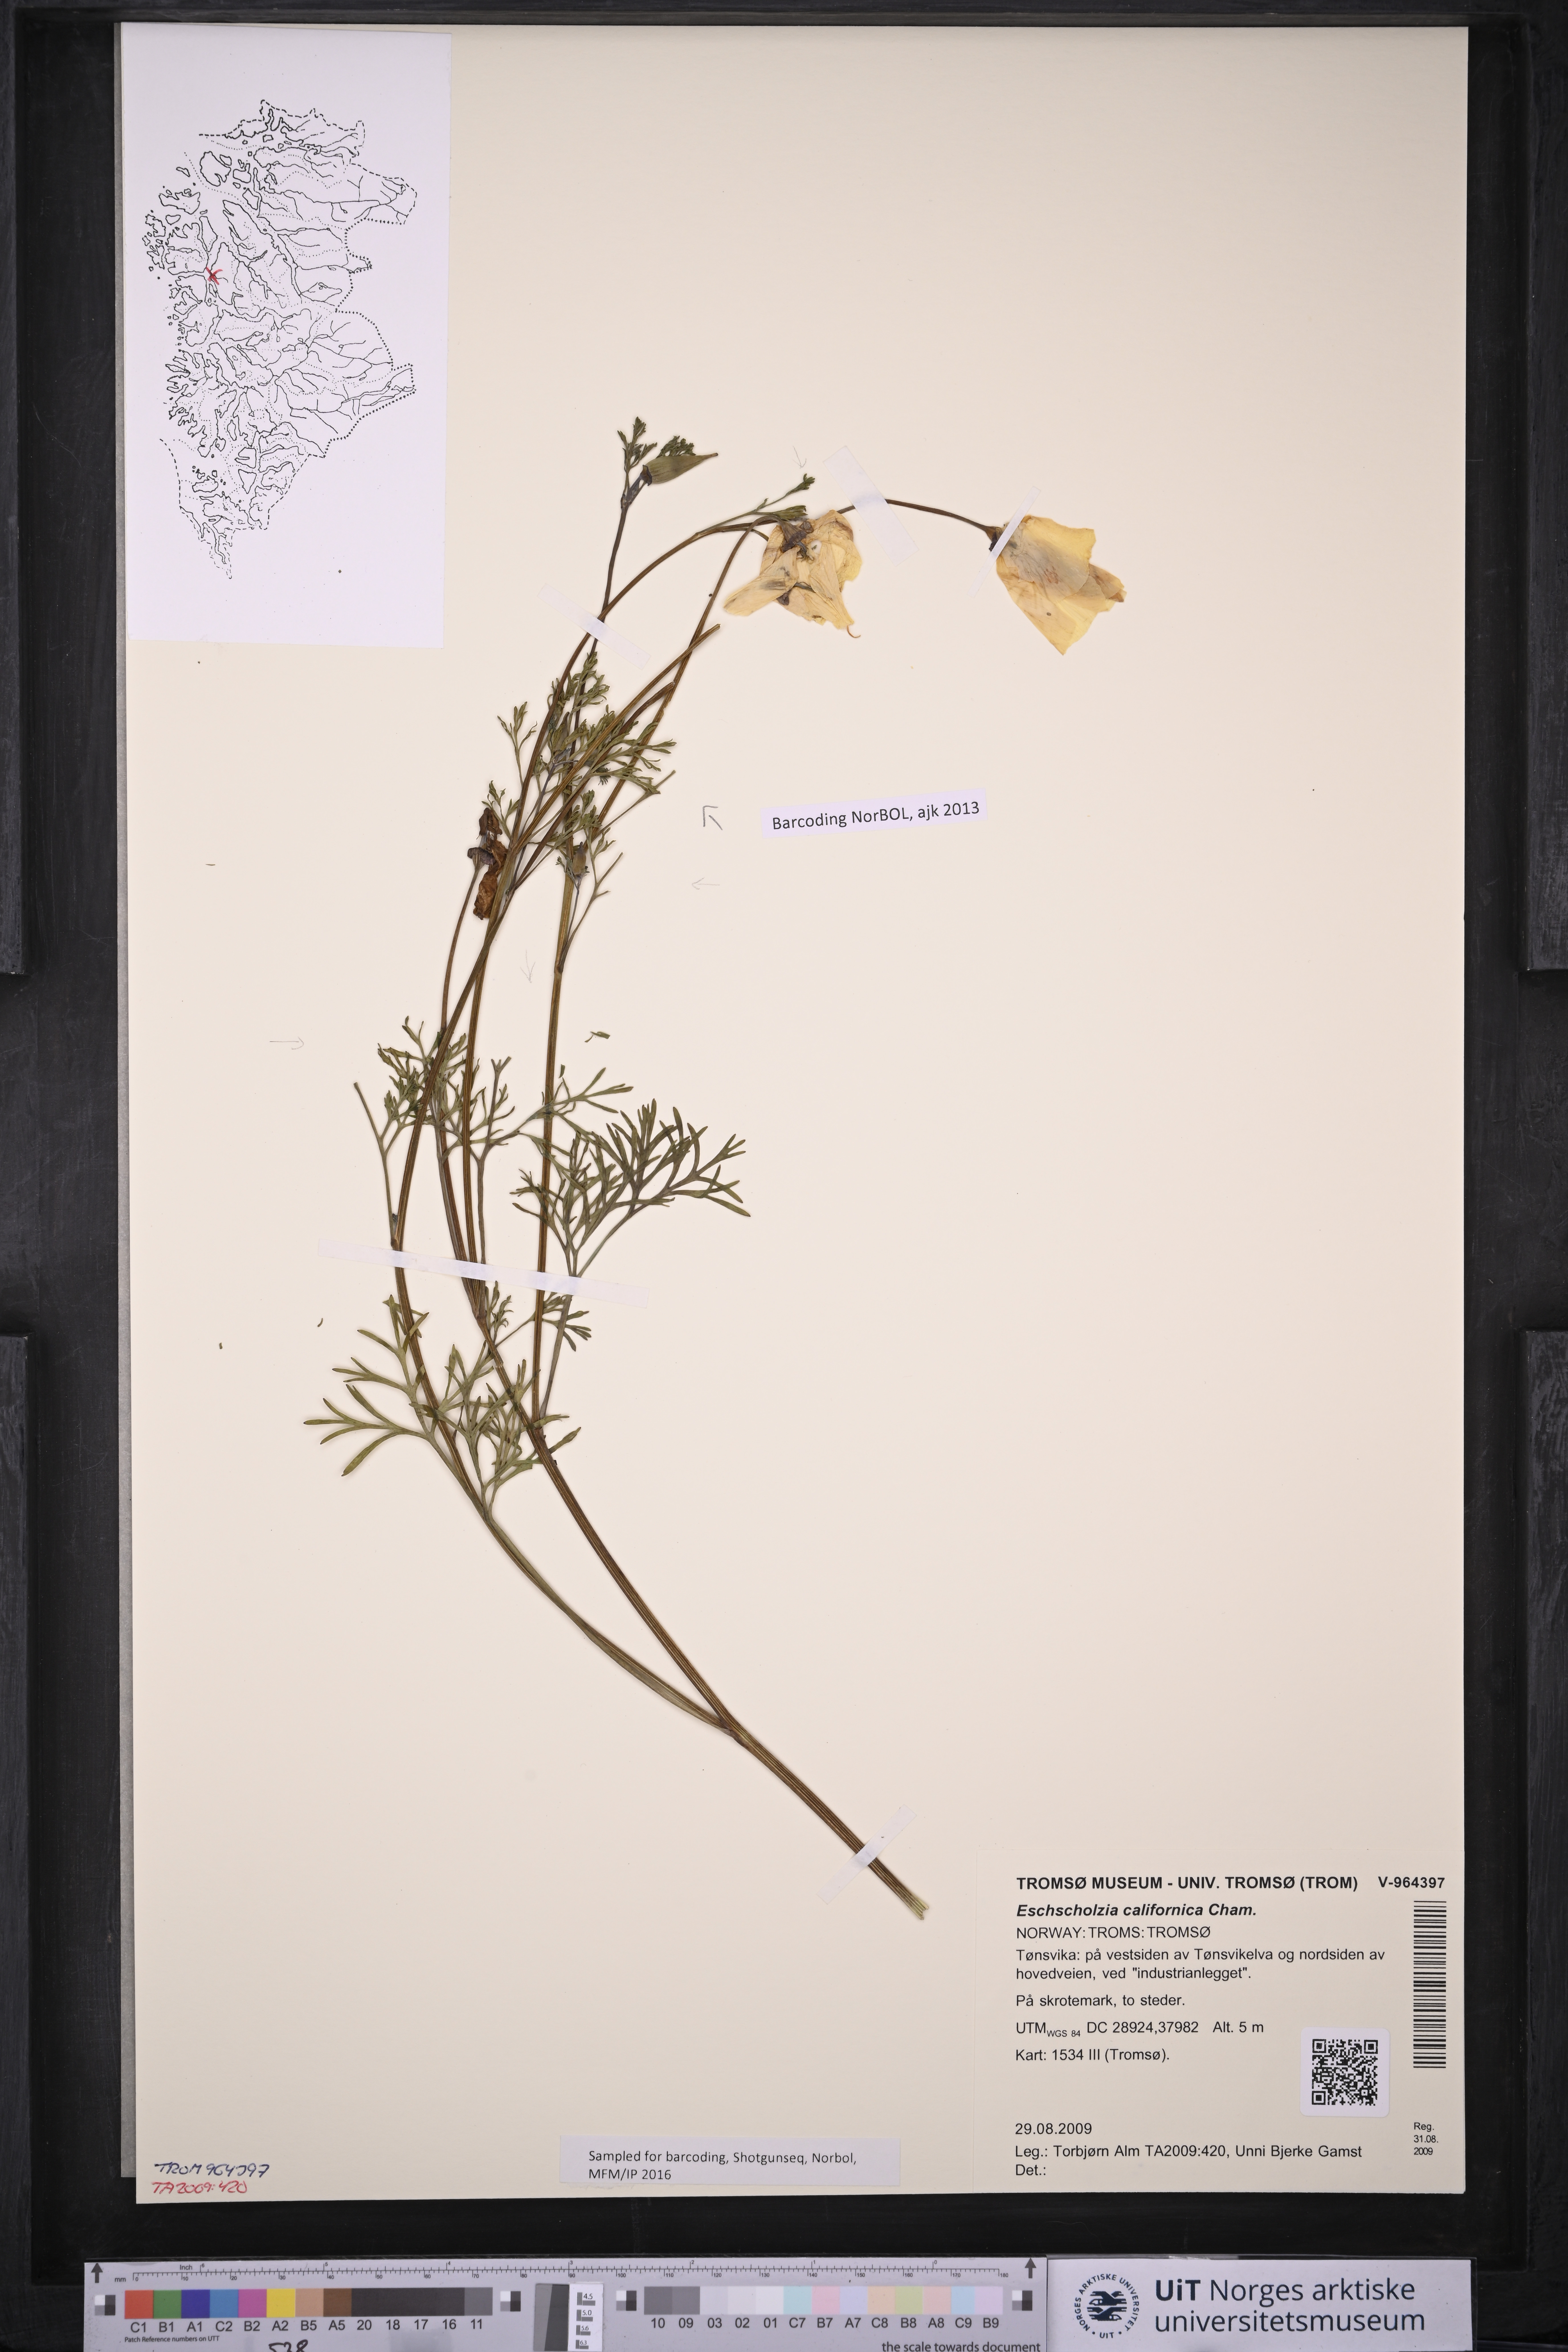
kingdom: Plantae
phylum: Tracheophyta
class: Magnoliopsida
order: Ranunculales
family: Papaveraceae
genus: Eschscholzia
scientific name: Eschscholzia californica
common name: California poppy
